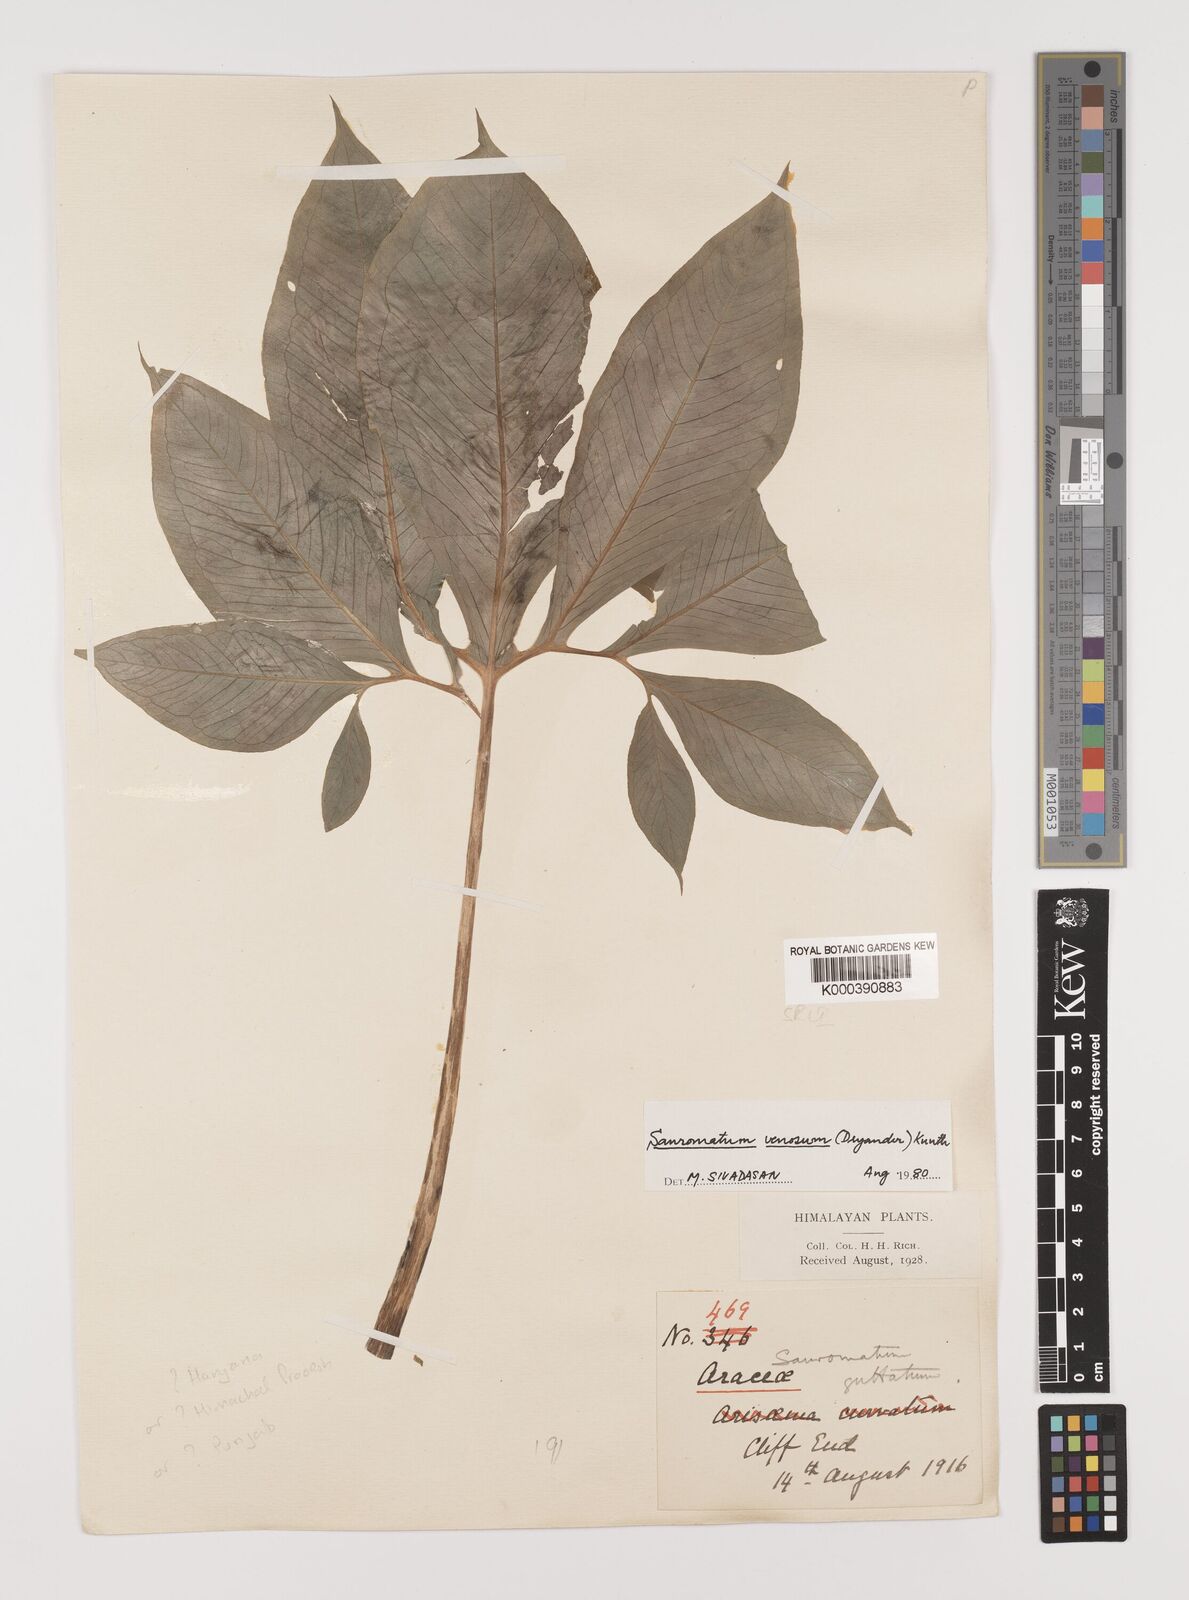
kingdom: Plantae
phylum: Tracheophyta
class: Liliopsida
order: Alismatales
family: Araceae
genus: Sauromatum
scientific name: Sauromatum venosum
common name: Voodoo lily
